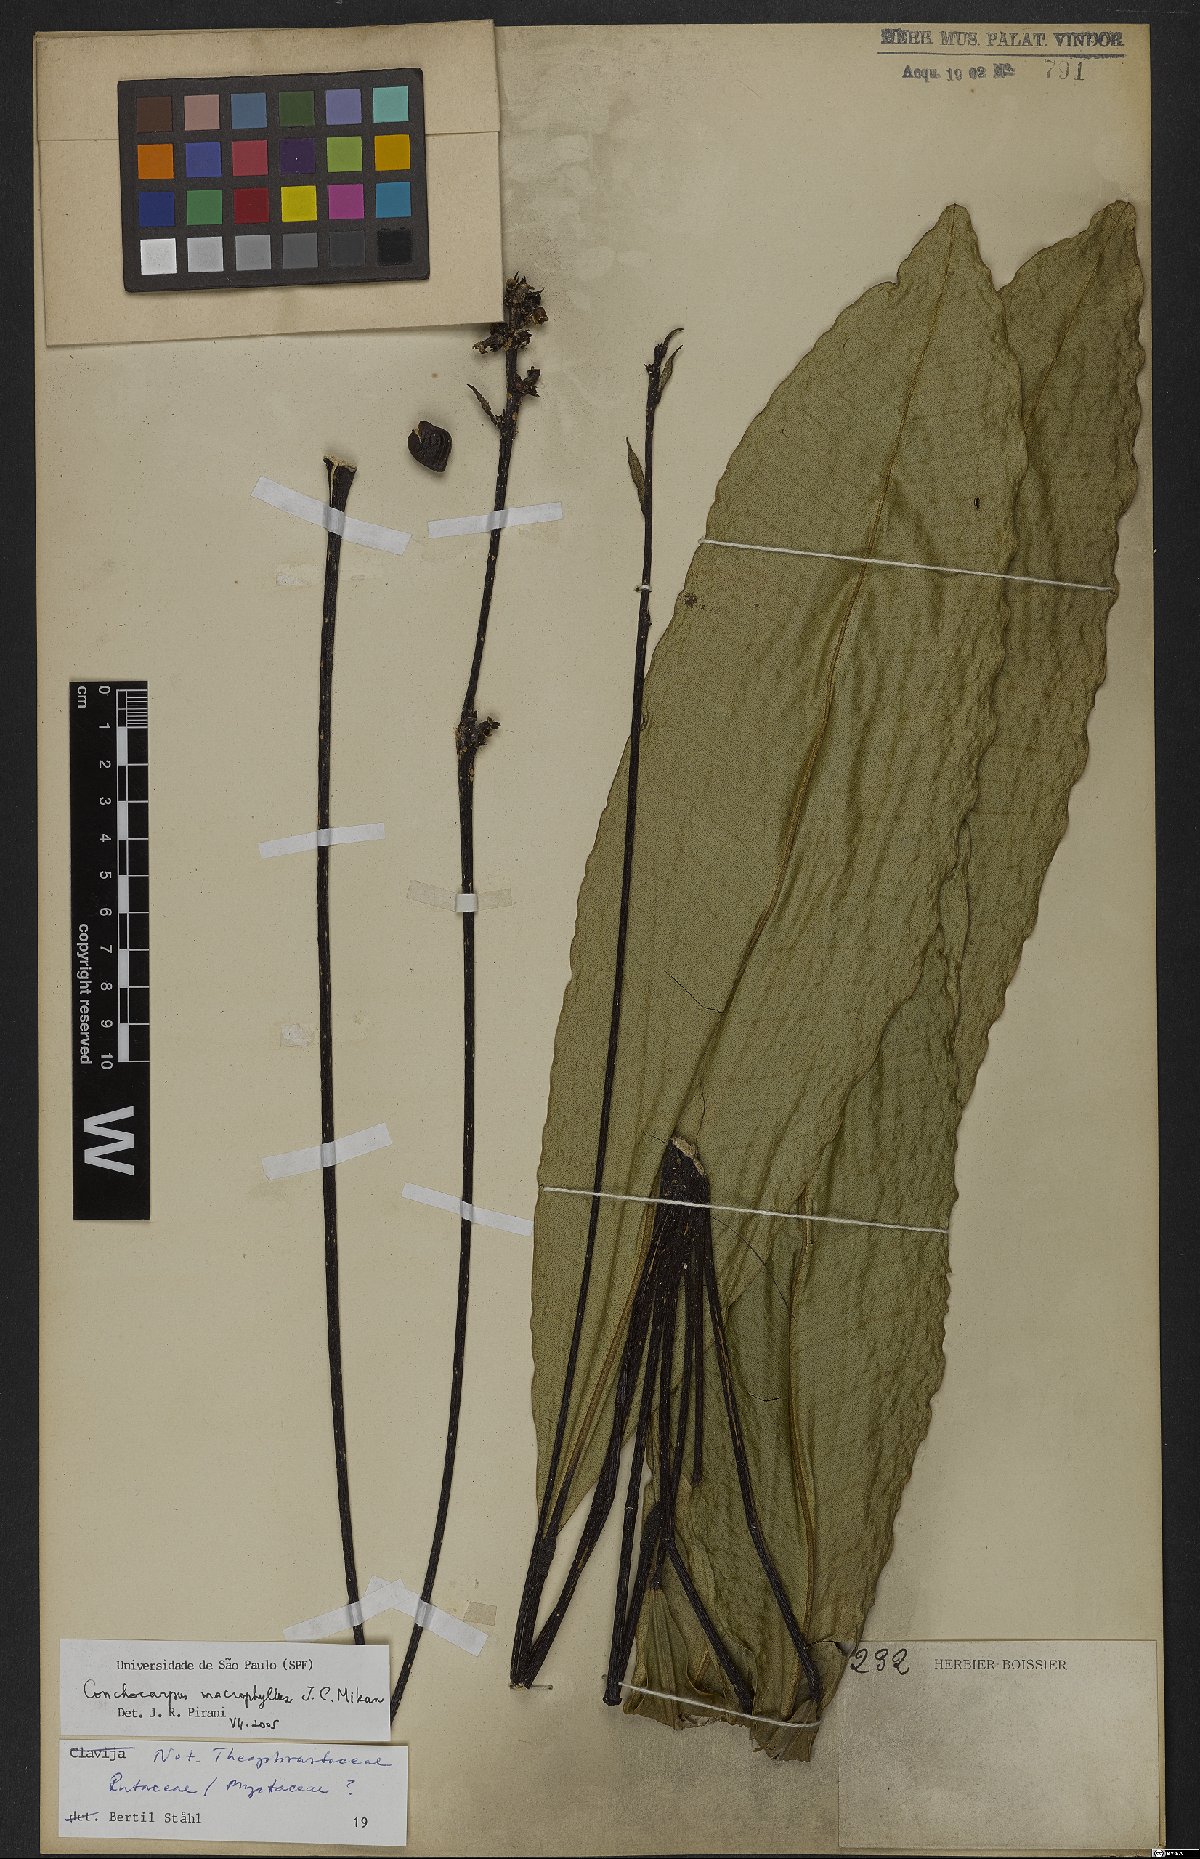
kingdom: Plantae
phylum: Tracheophyta
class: Magnoliopsida
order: Sapindales
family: Rutaceae
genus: Conchocarpus
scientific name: Conchocarpus macrophyllus
